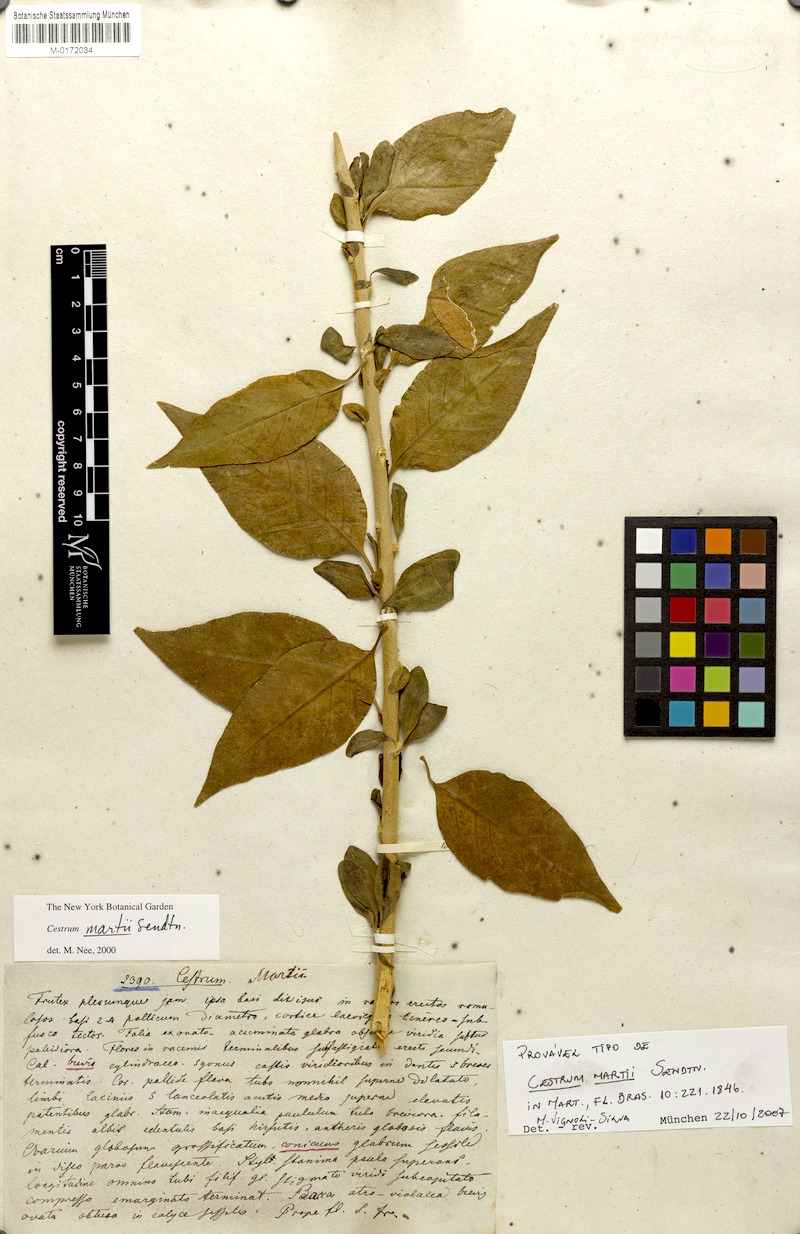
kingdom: Plantae
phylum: Tracheophyta
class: Magnoliopsida
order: Solanales
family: Solanaceae
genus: Cestrum
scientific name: Cestrum martii
